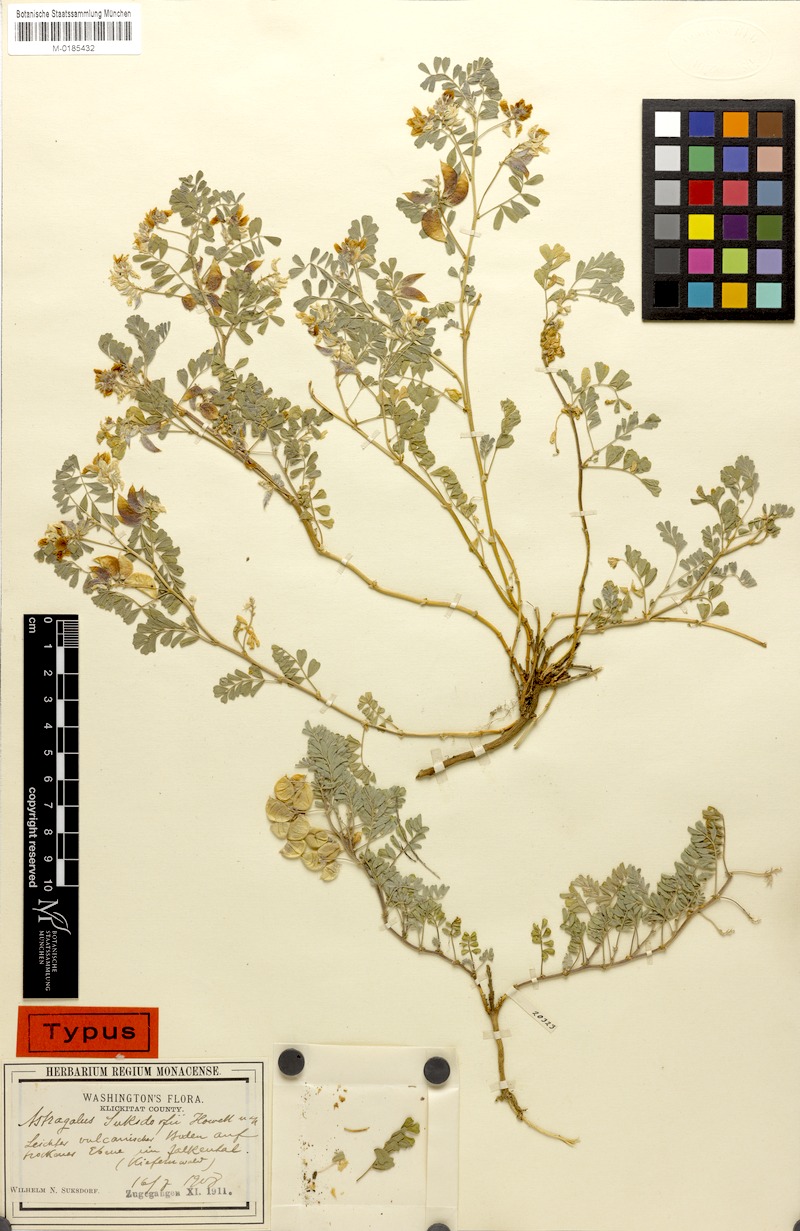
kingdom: Plantae
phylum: Tracheophyta
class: Magnoliopsida
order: Fabales
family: Fabaceae
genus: Astragalus
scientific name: Astragalus pulsiferae
